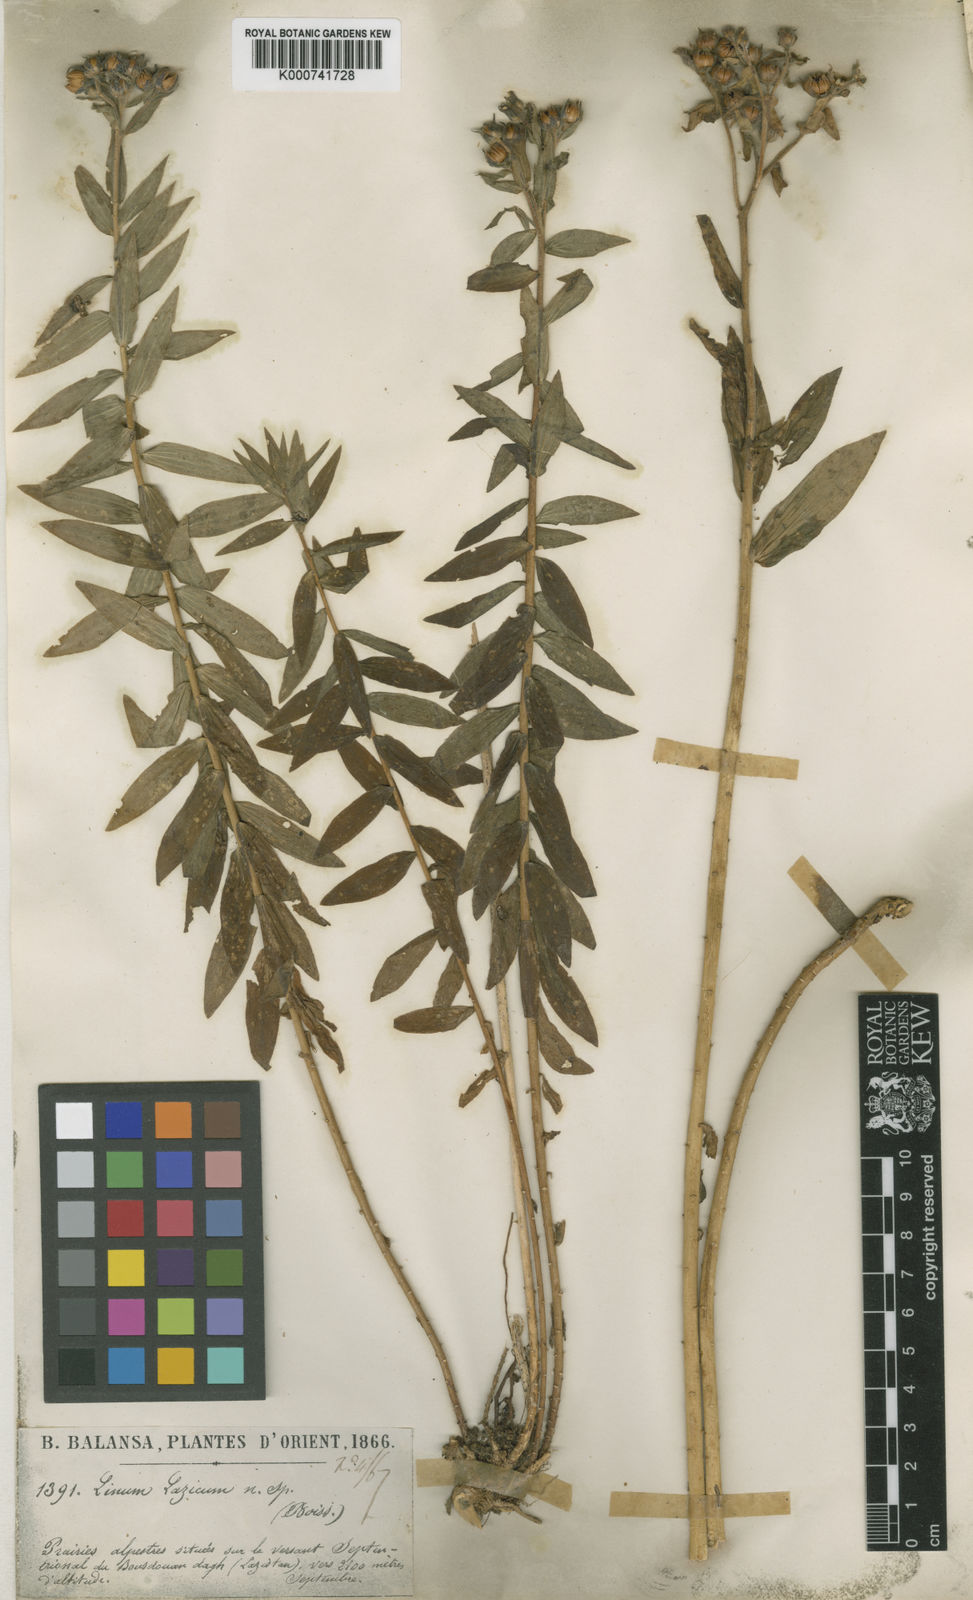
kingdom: Plantae
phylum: Tracheophyta
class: Magnoliopsida
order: Malpighiales
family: Linaceae
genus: Linum
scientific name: Linum orizabae
